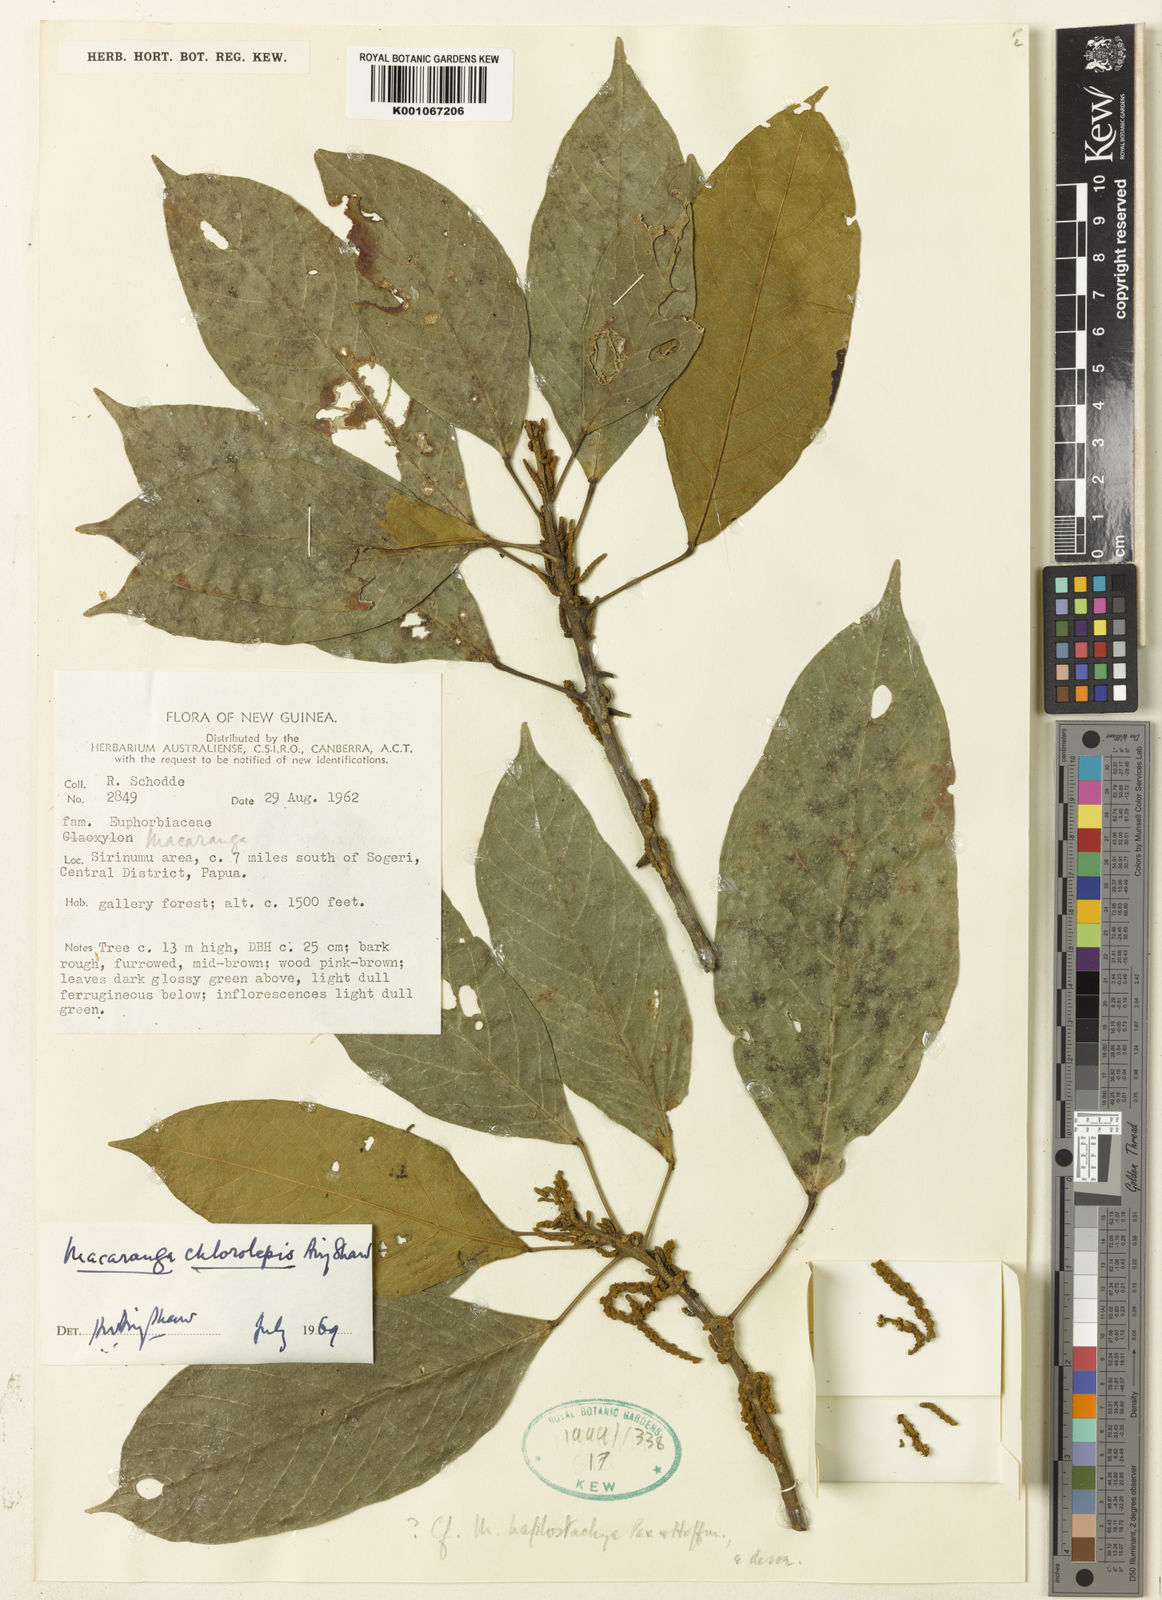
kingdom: Plantae
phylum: Tracheophyta
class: Magnoliopsida
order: Malpighiales
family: Euphorbiaceae
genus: Macaranga
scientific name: Macaranga chlorolepis
